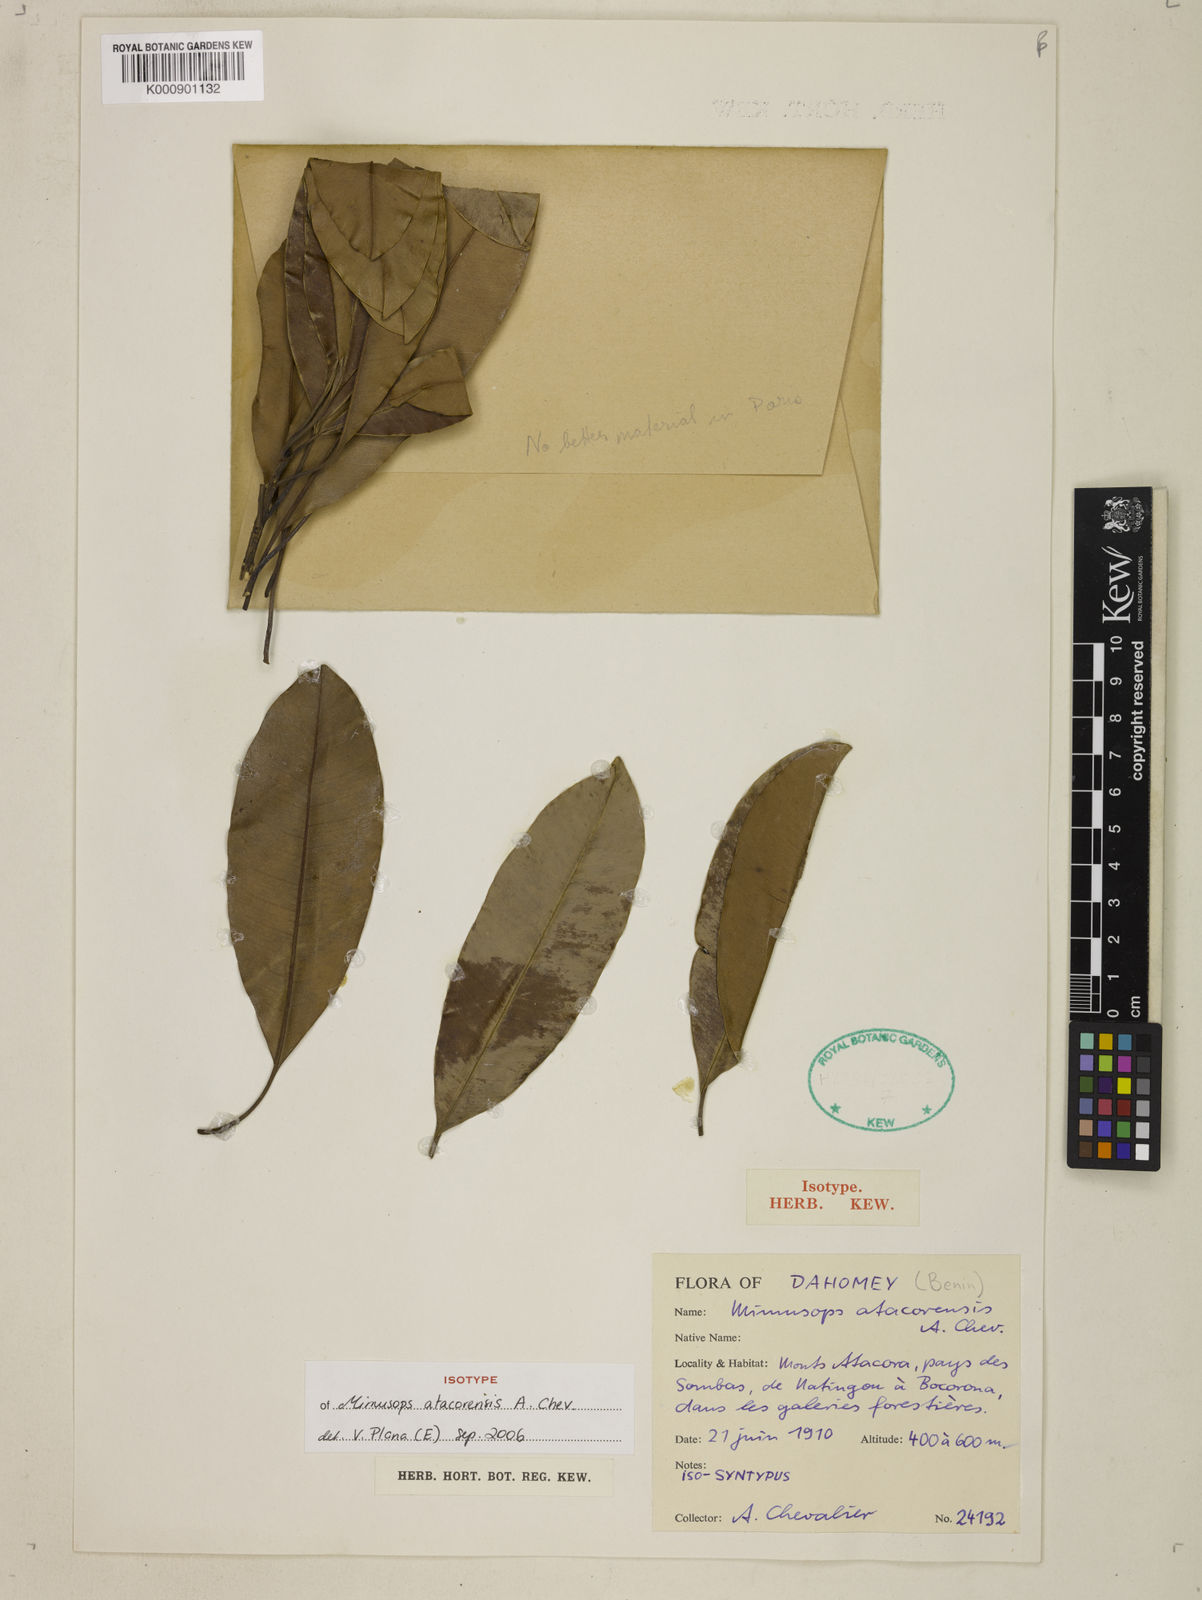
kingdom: Plantae
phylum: Tracheophyta
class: Magnoliopsida
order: Ericales
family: Sapotaceae
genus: Manilkara
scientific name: Manilkara obovata
